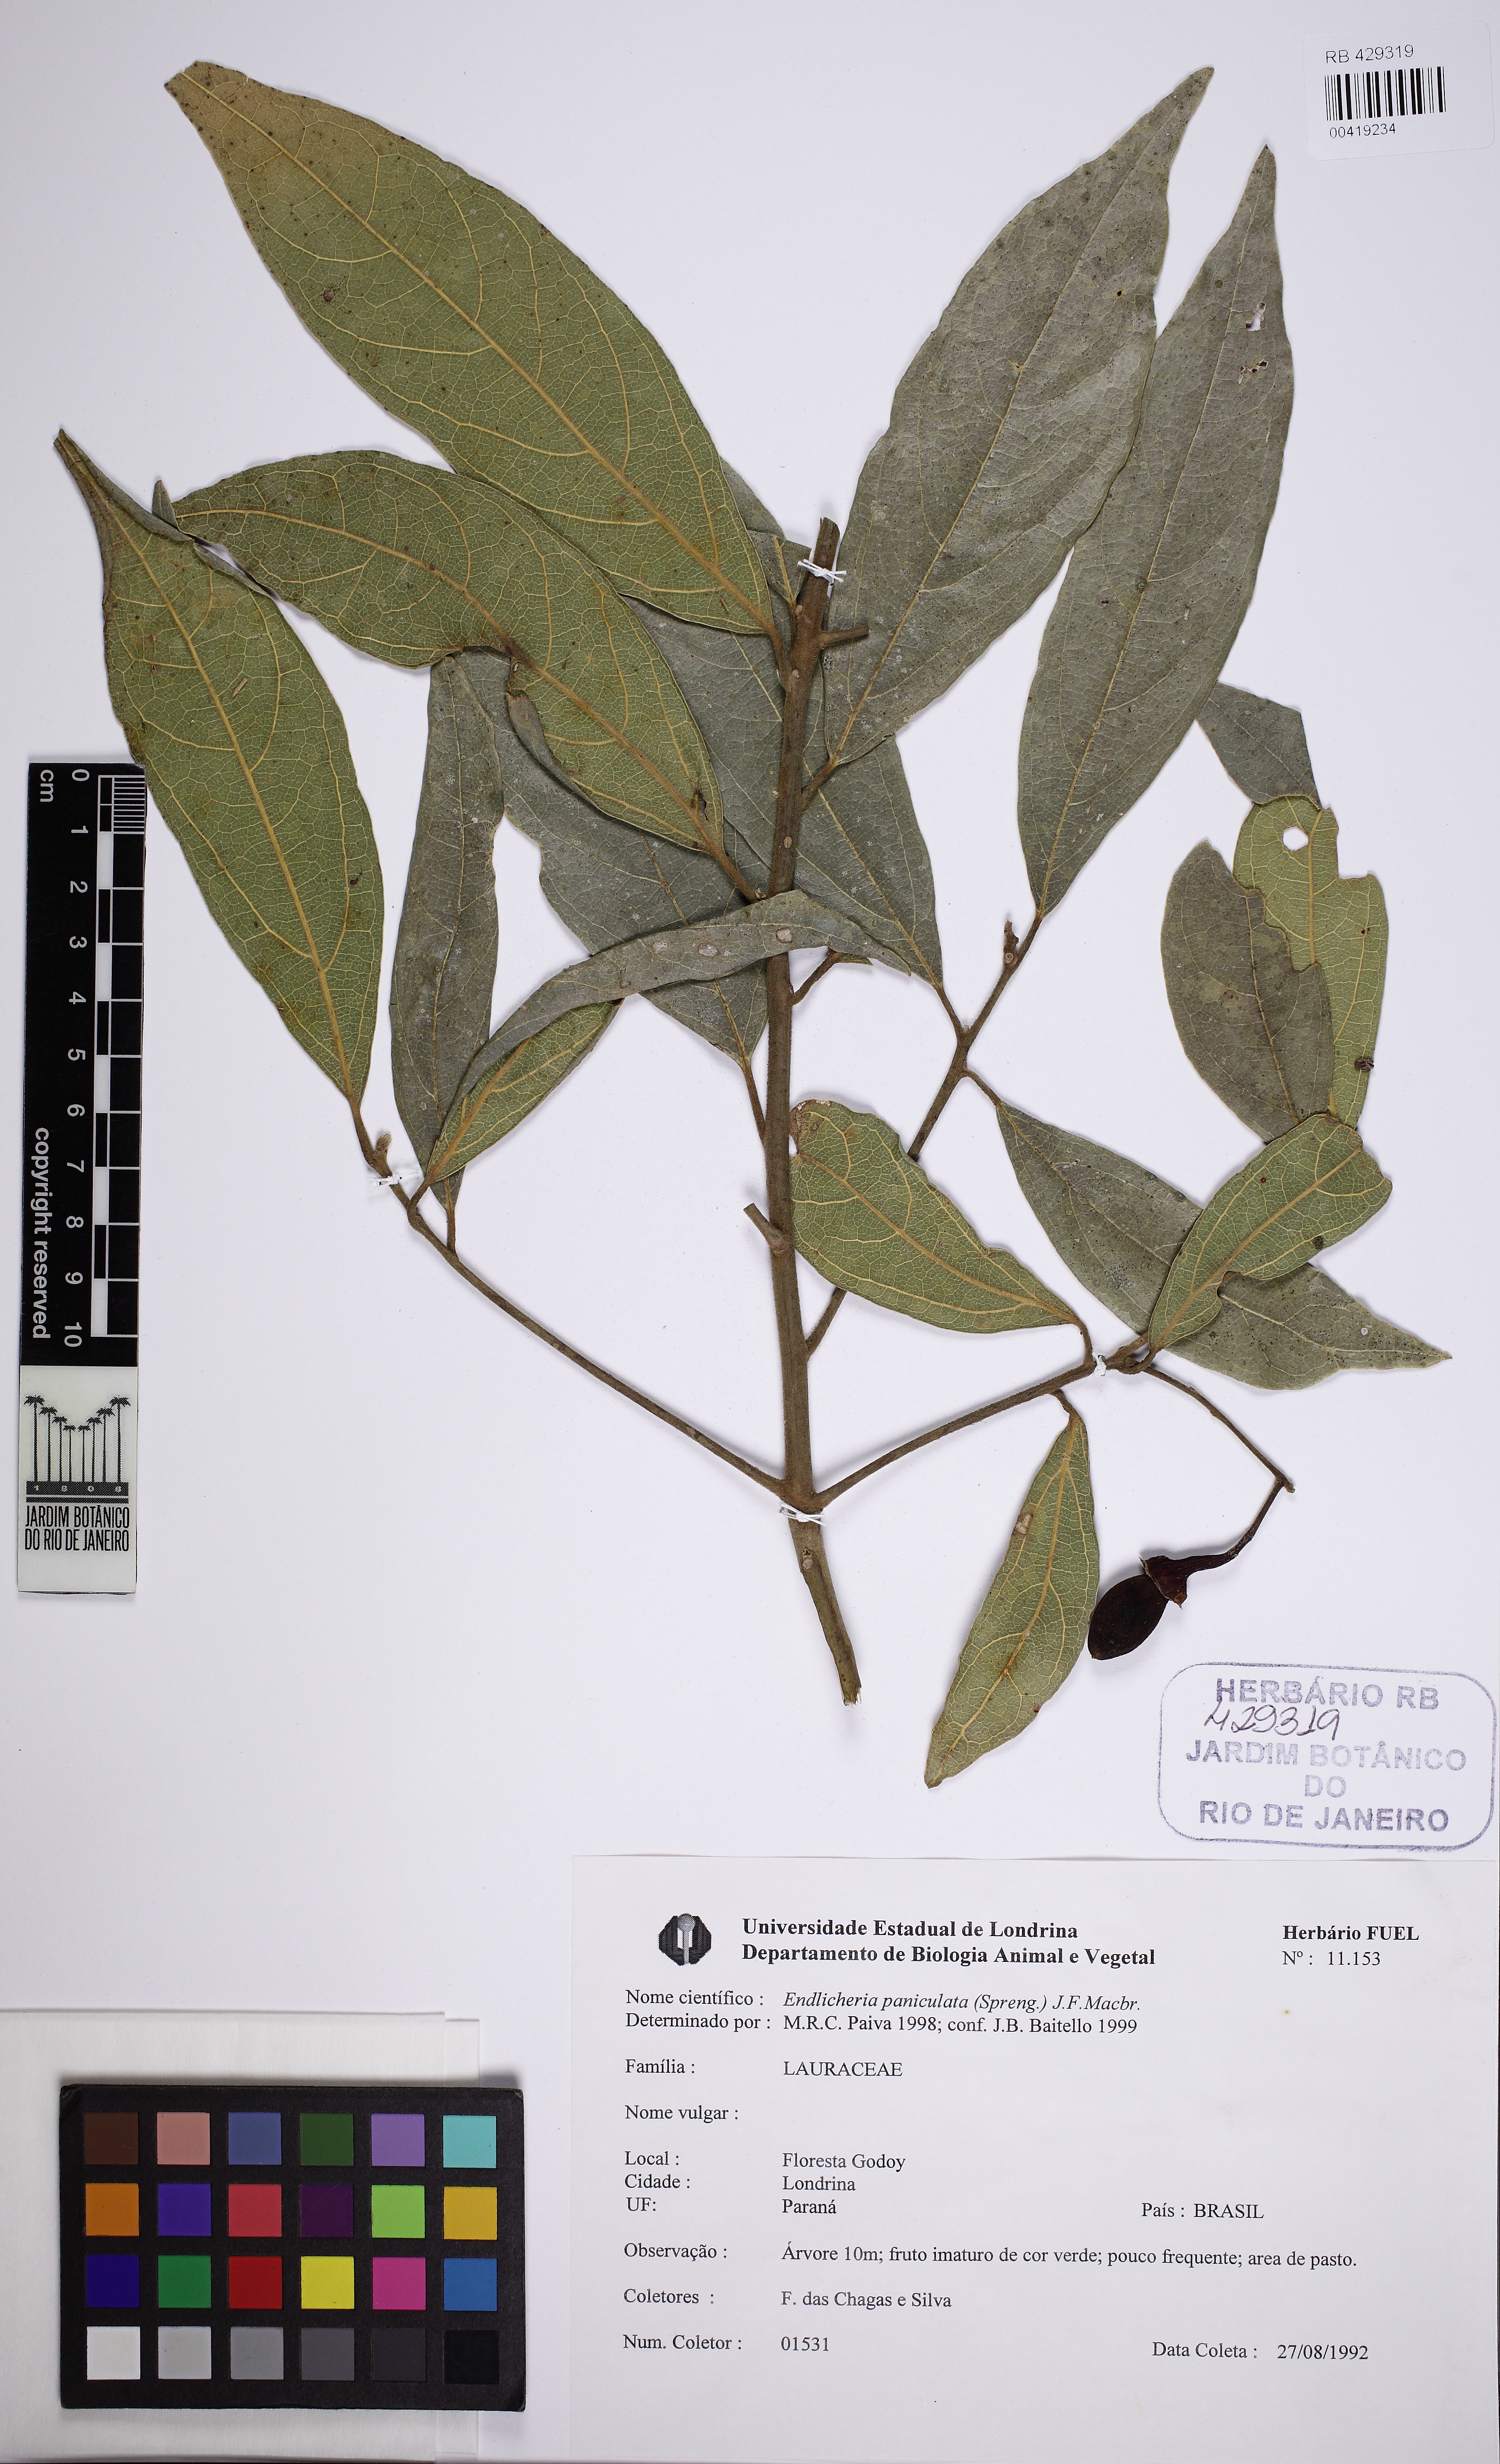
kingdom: Plantae
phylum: Tracheophyta
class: Magnoliopsida
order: Laurales
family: Lauraceae
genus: Endlicheria
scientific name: Endlicheria paniculata
